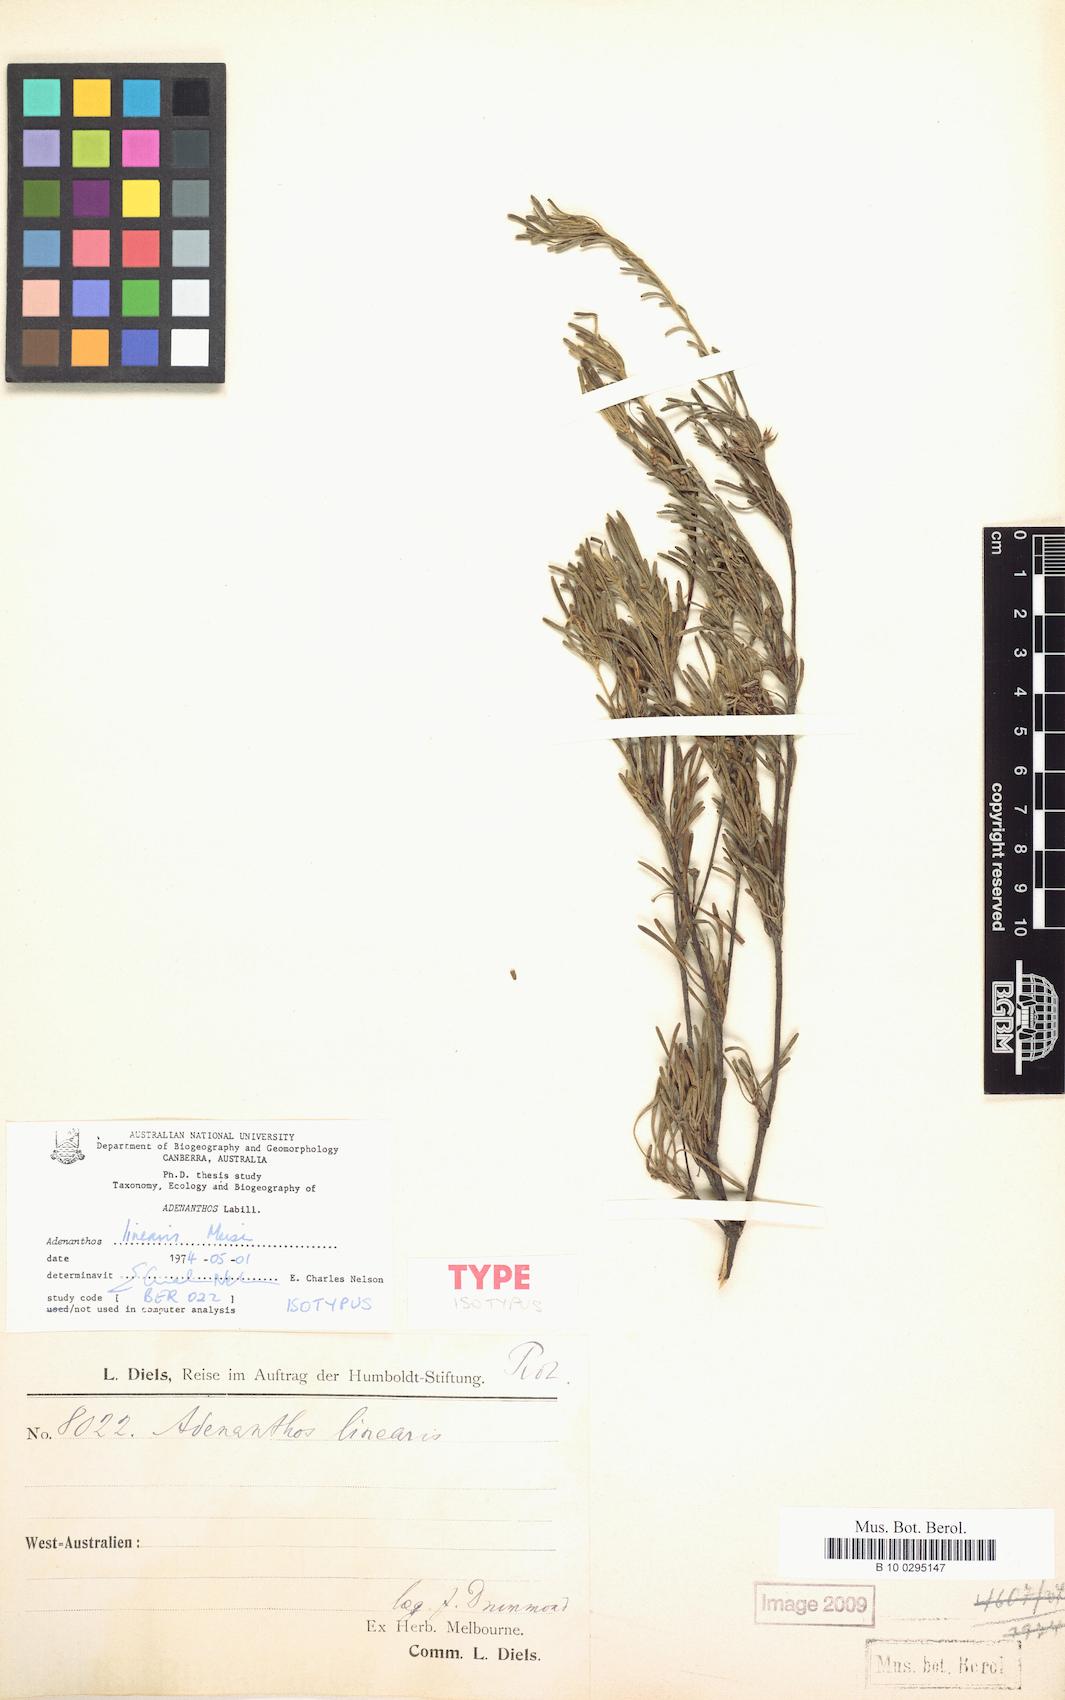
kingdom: Plantae
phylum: Tracheophyta
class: Magnoliopsida
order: Proteales
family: Proteaceae
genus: Adenanthos
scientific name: Adenanthos linearis
